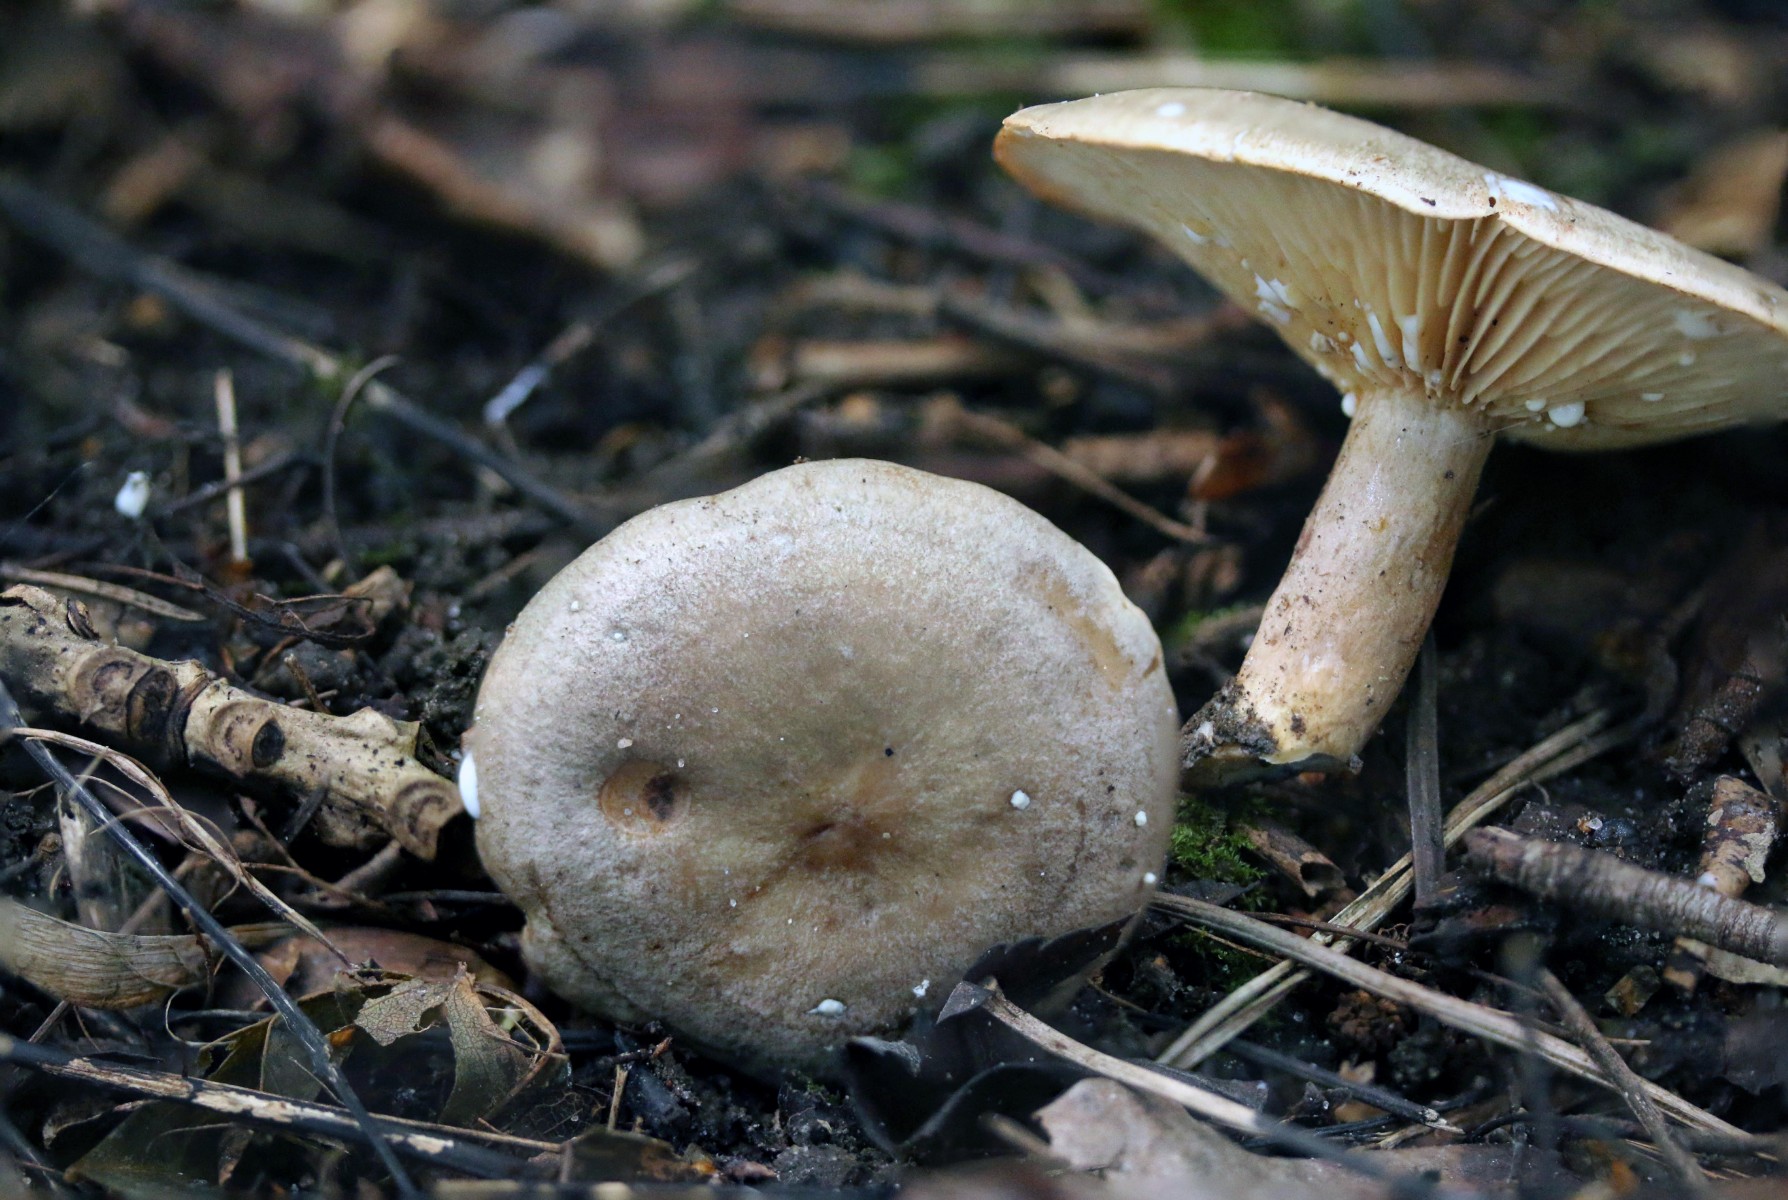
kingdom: Fungi
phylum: Basidiomycota
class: Agaricomycetes
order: Russulales
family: Russulaceae
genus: Lactarius
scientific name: Lactarius pyrogalus
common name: hassel-mælkehat
